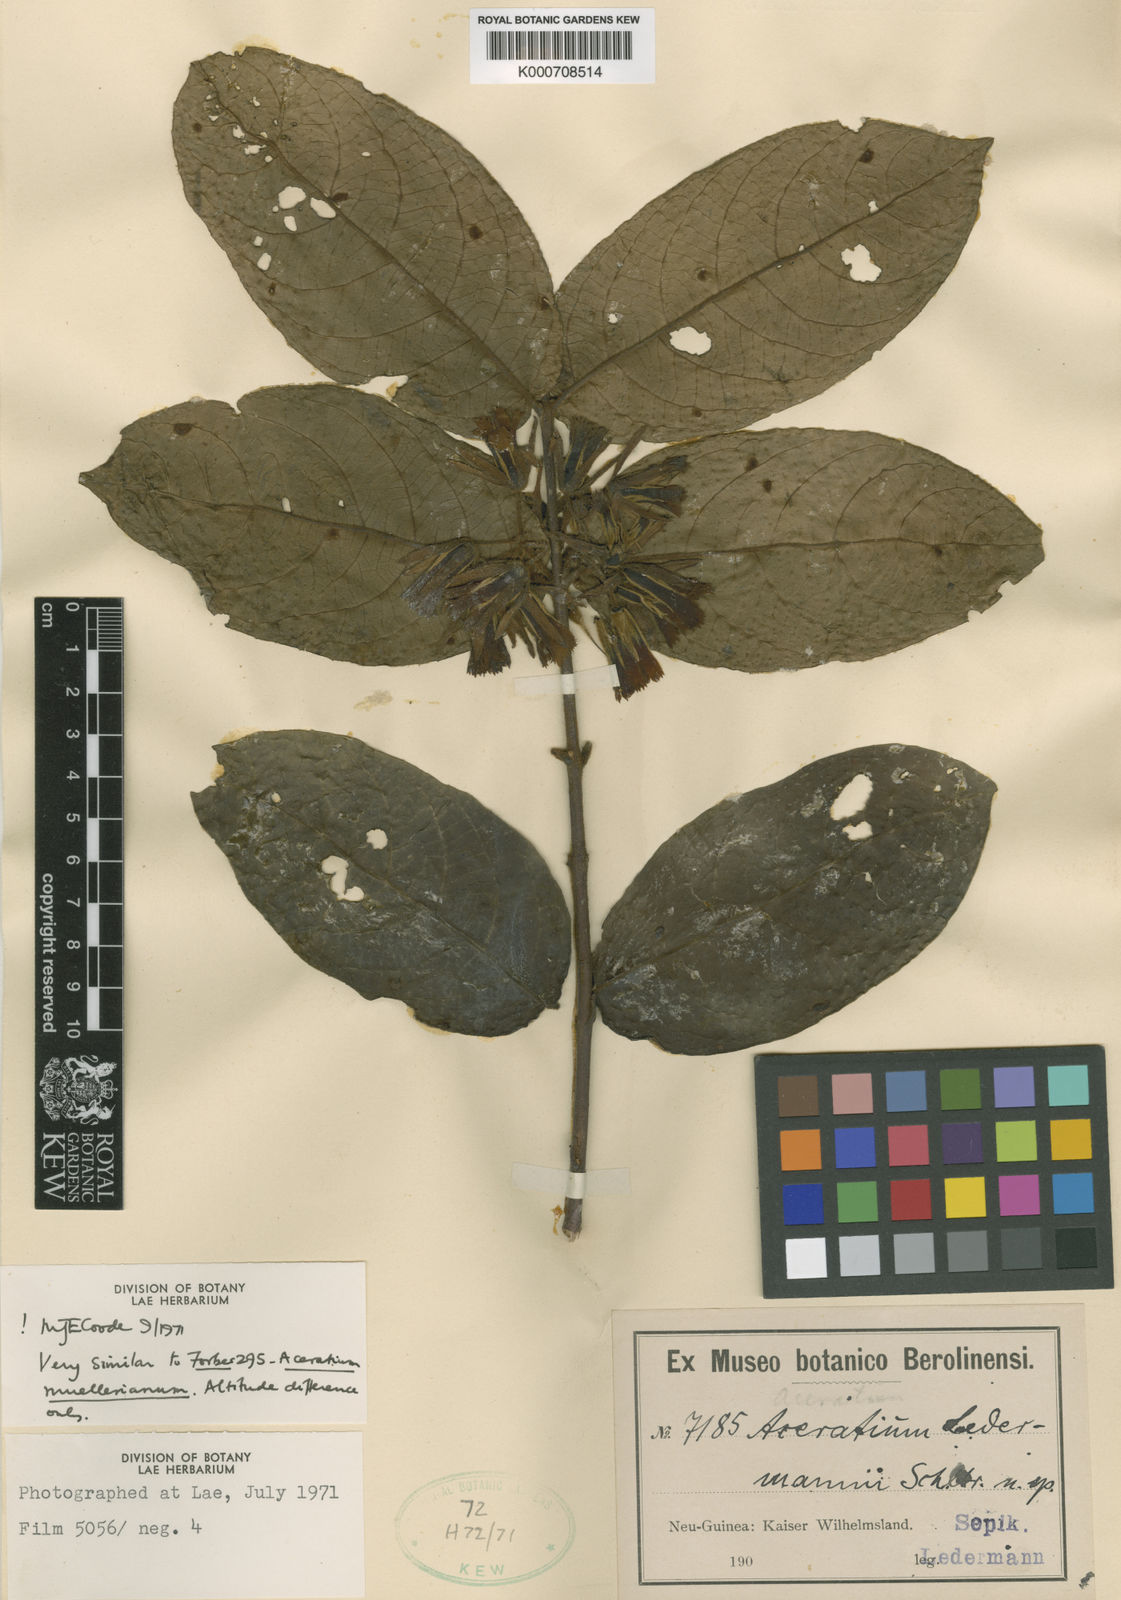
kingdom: Plantae
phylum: Tracheophyta
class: Magnoliopsida
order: Oxalidales
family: Elaeocarpaceae
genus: Aceratium
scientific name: Aceratium ledermannii
